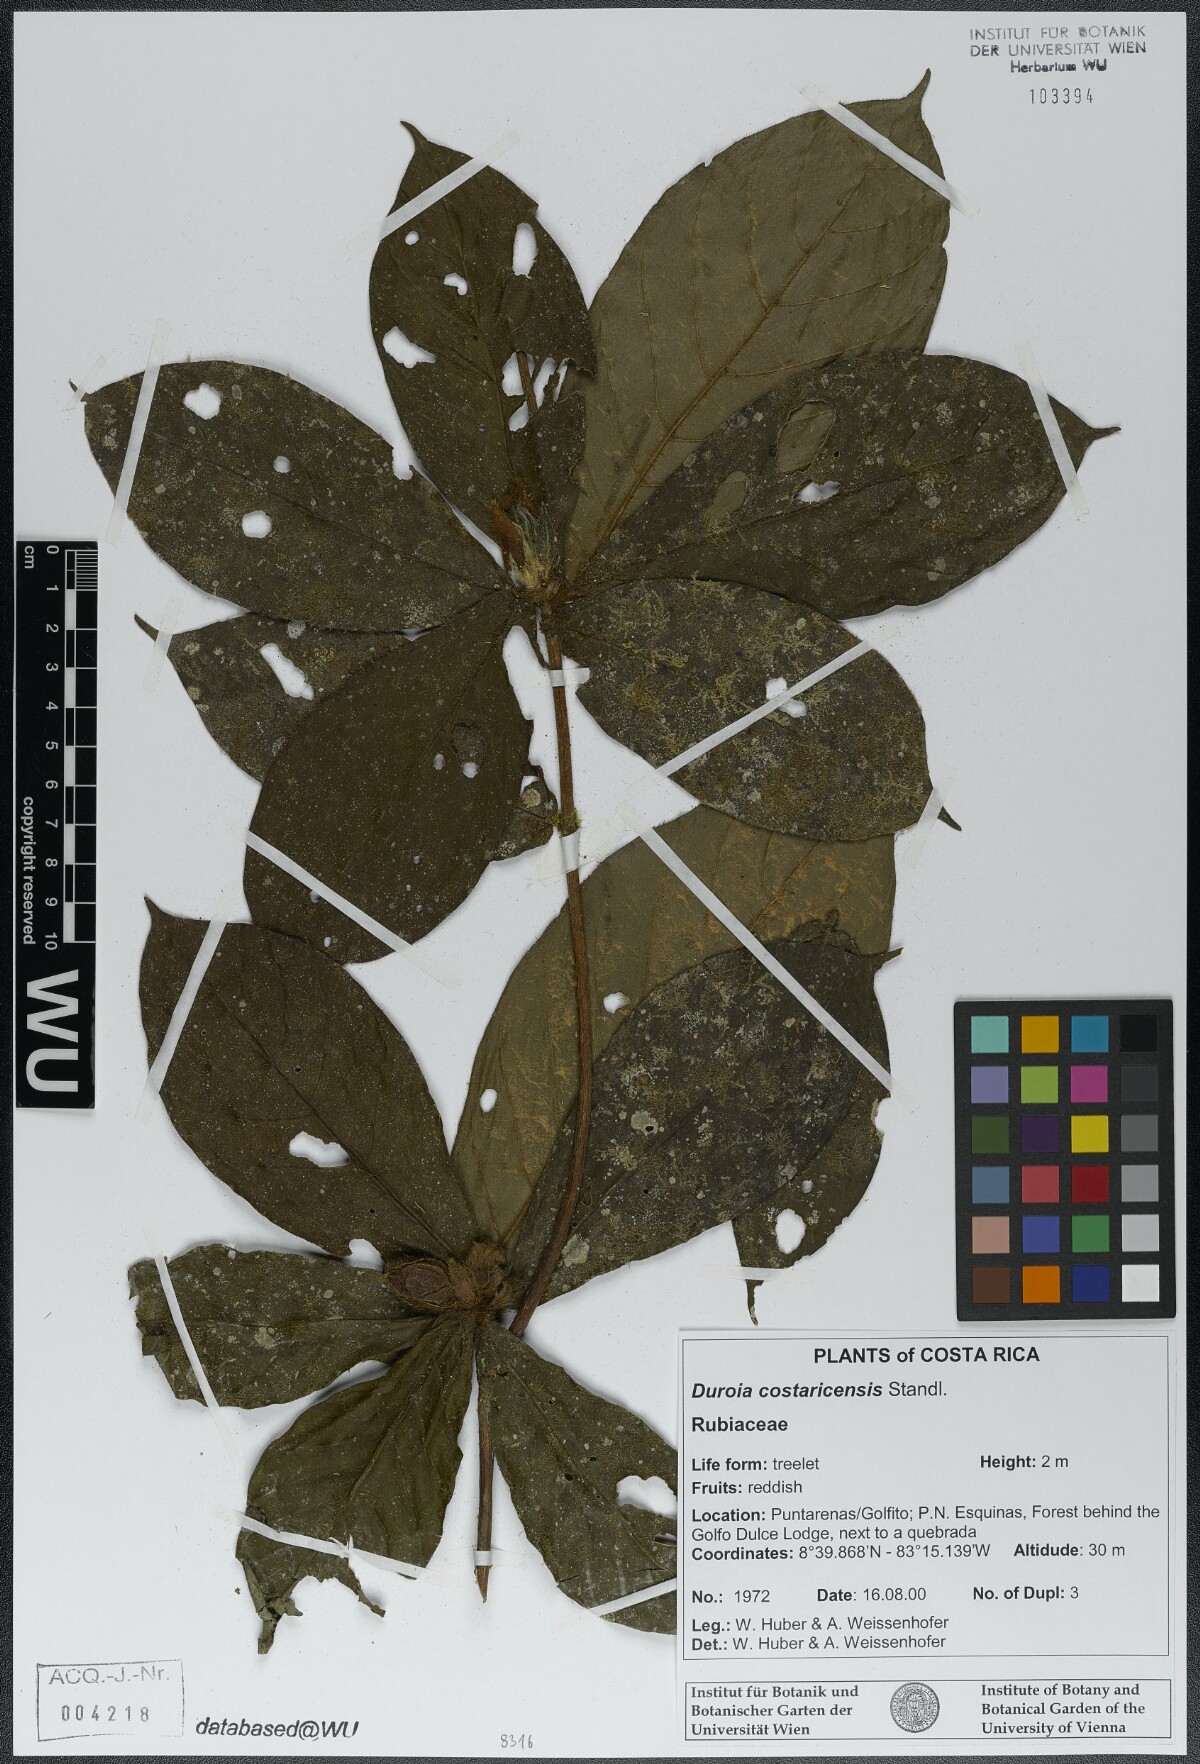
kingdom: Plantae
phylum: Tracheophyta
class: Magnoliopsida
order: Gentianales
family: Rubiaceae
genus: Duroia
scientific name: Duroia costaricensis
